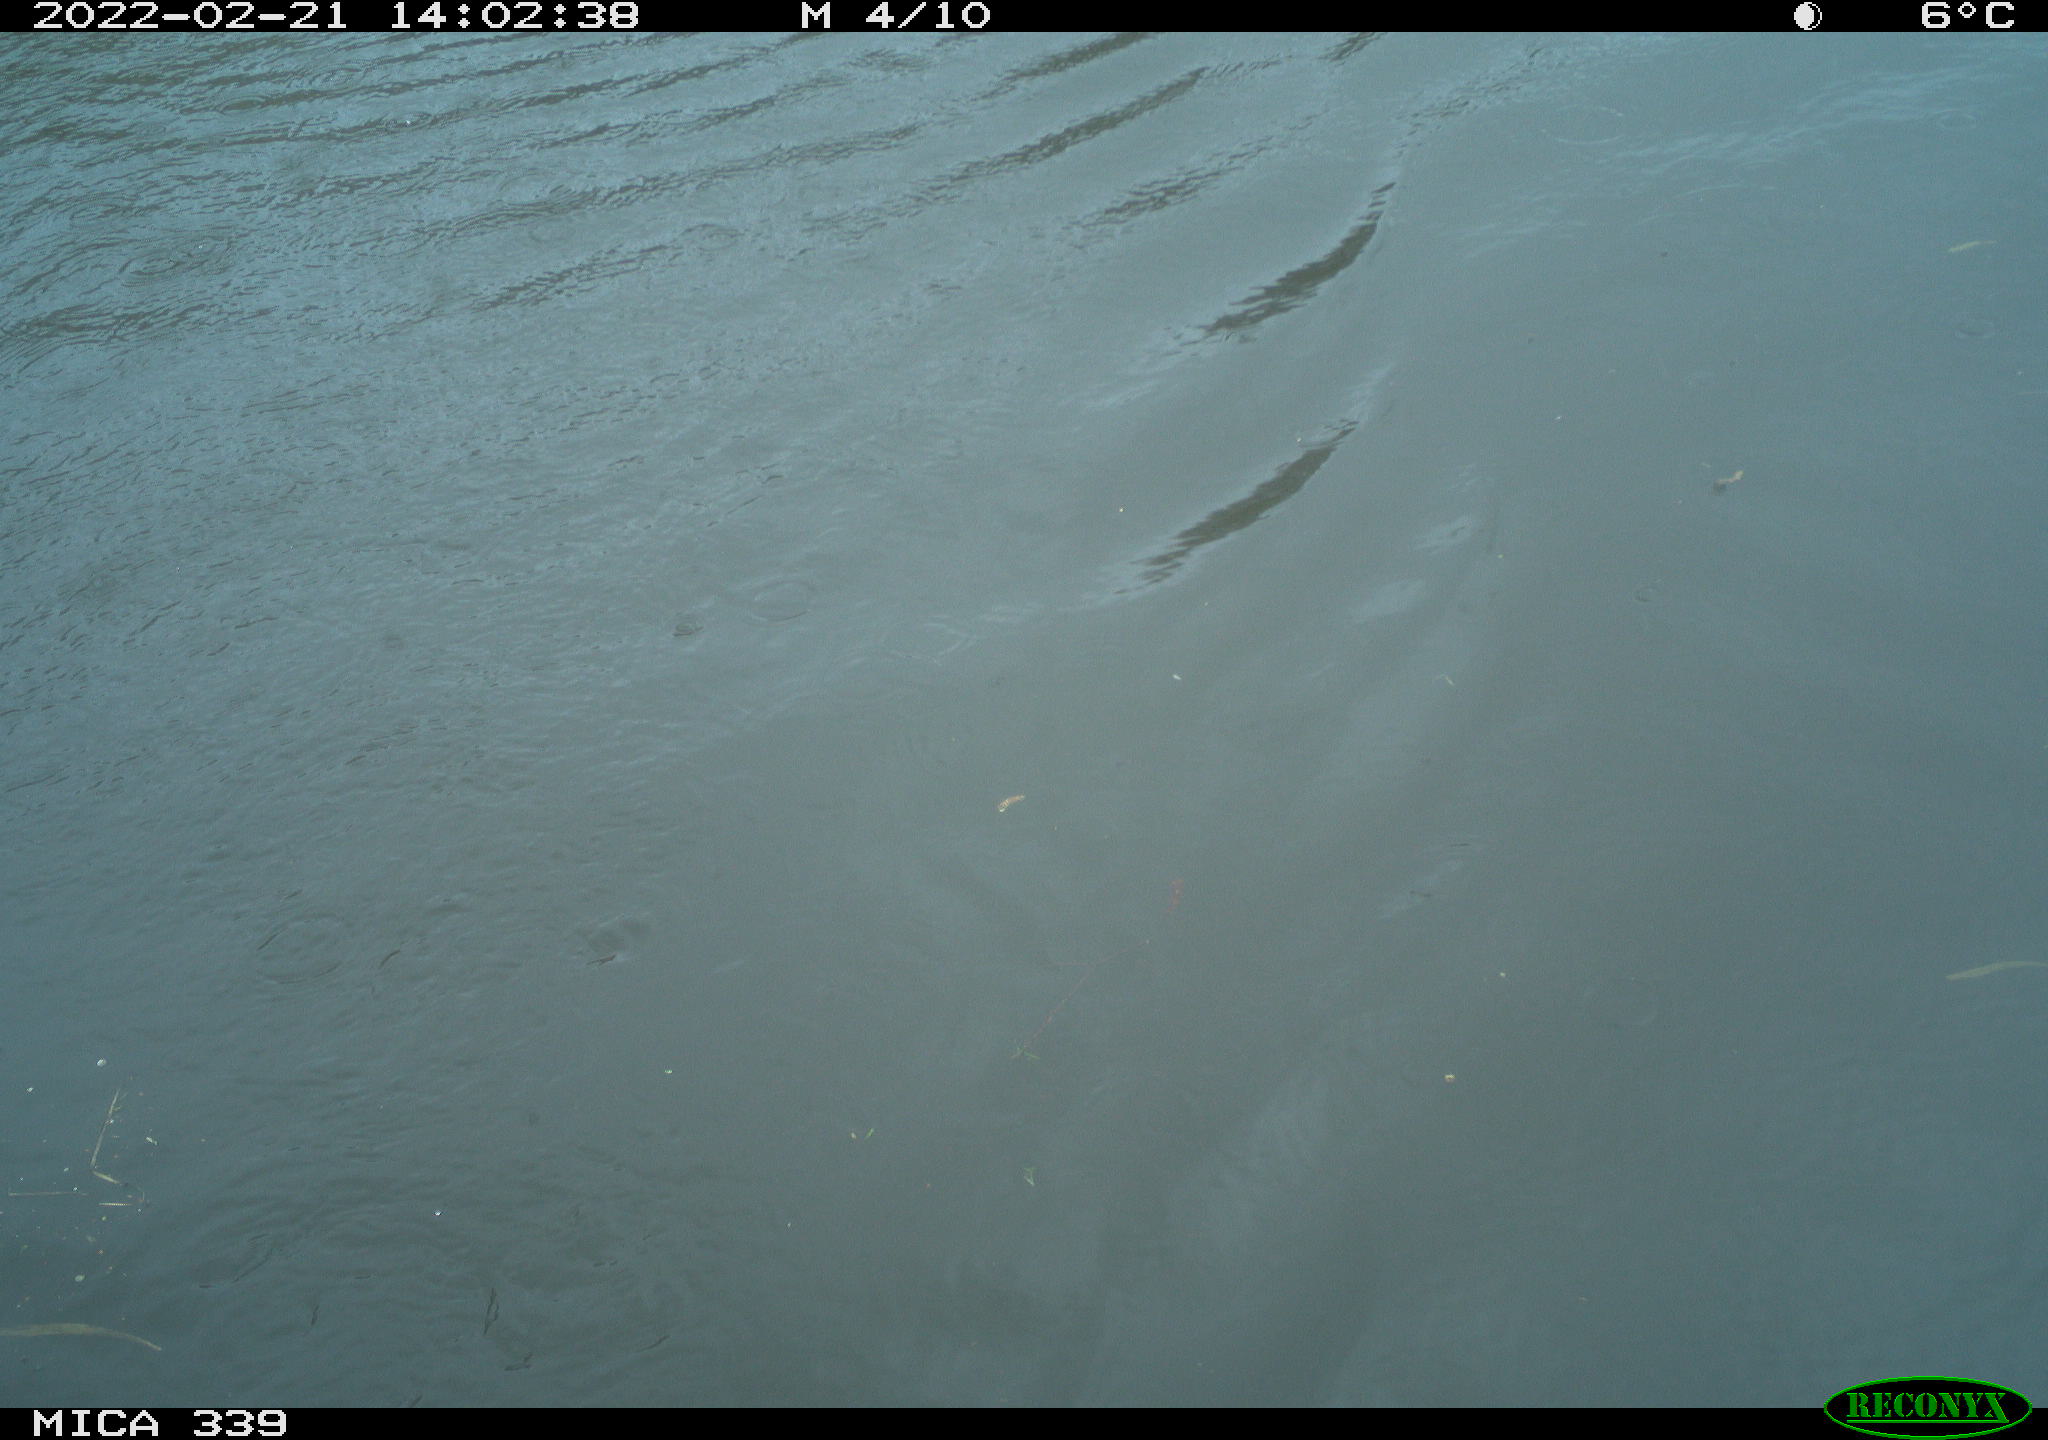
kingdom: Animalia
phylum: Chordata
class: Aves
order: Suliformes
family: Phalacrocoracidae
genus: Phalacrocorax
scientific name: Phalacrocorax carbo
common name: Great cormorant
